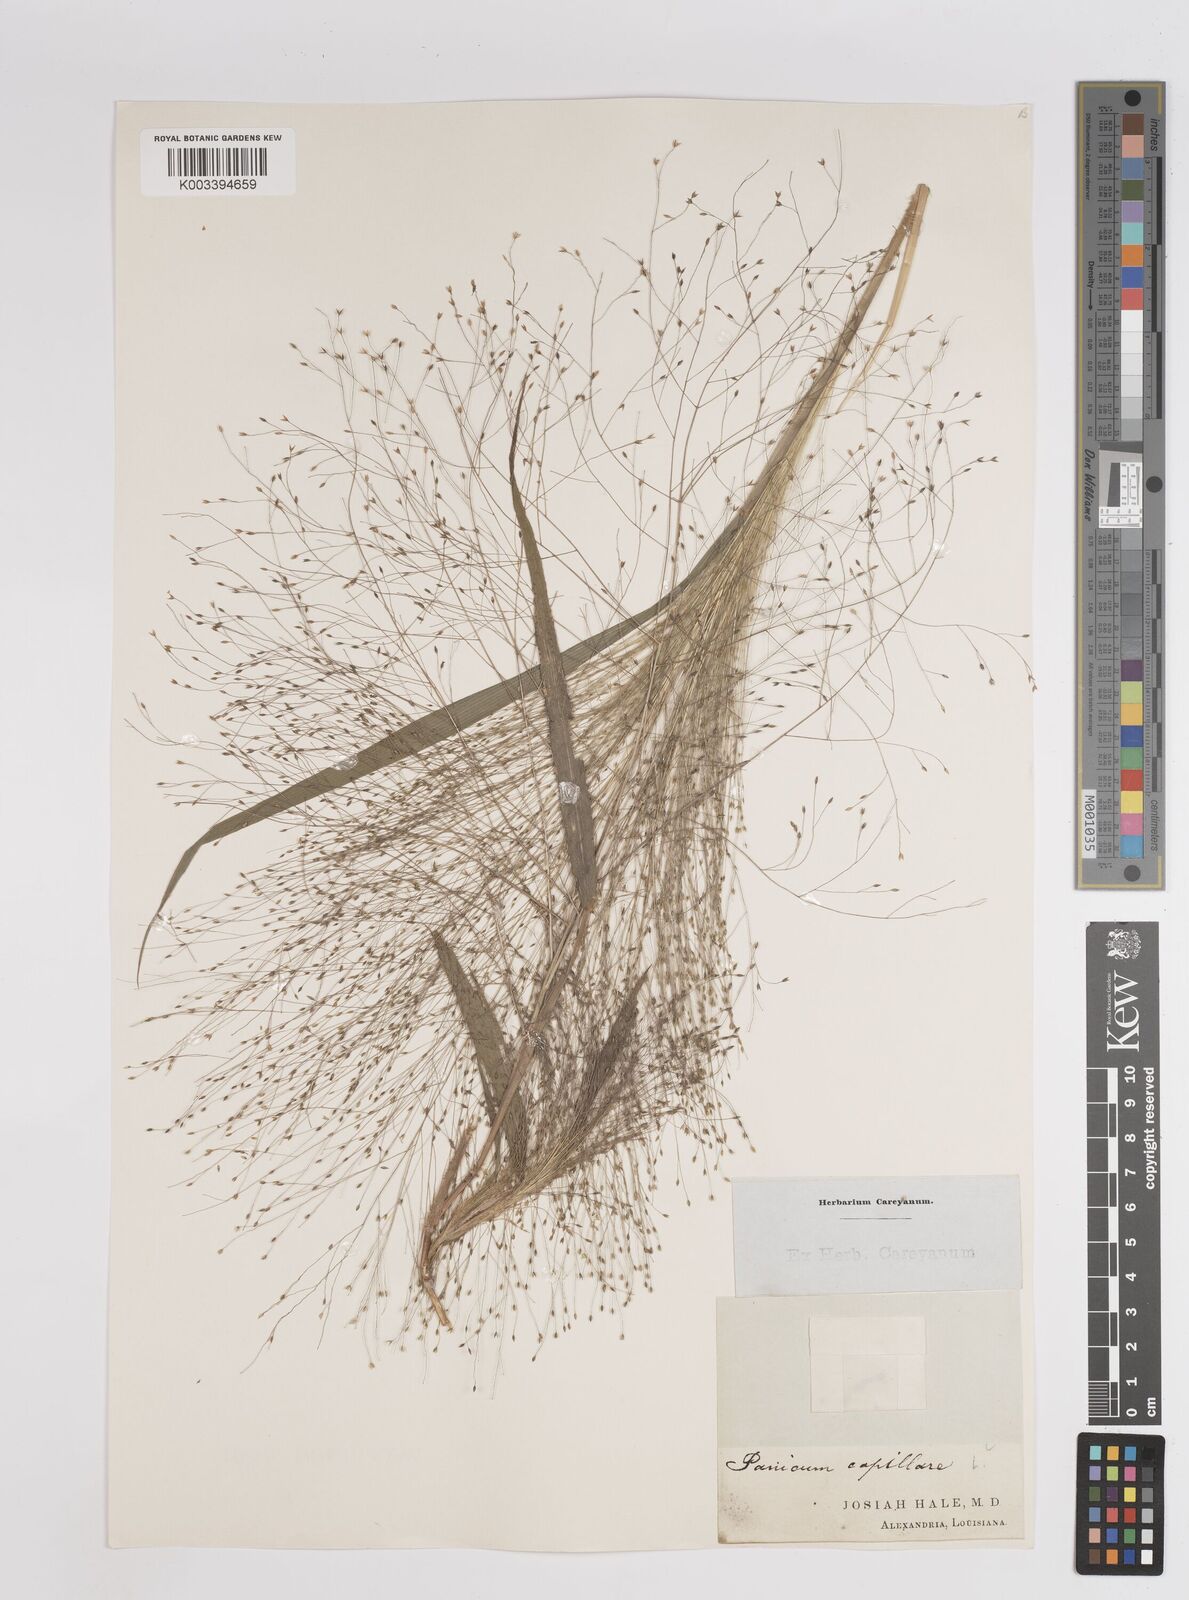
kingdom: Plantae
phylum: Tracheophyta
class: Liliopsida
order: Poales
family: Poaceae
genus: Panicum
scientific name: Panicum capillare
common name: Witch-grass
